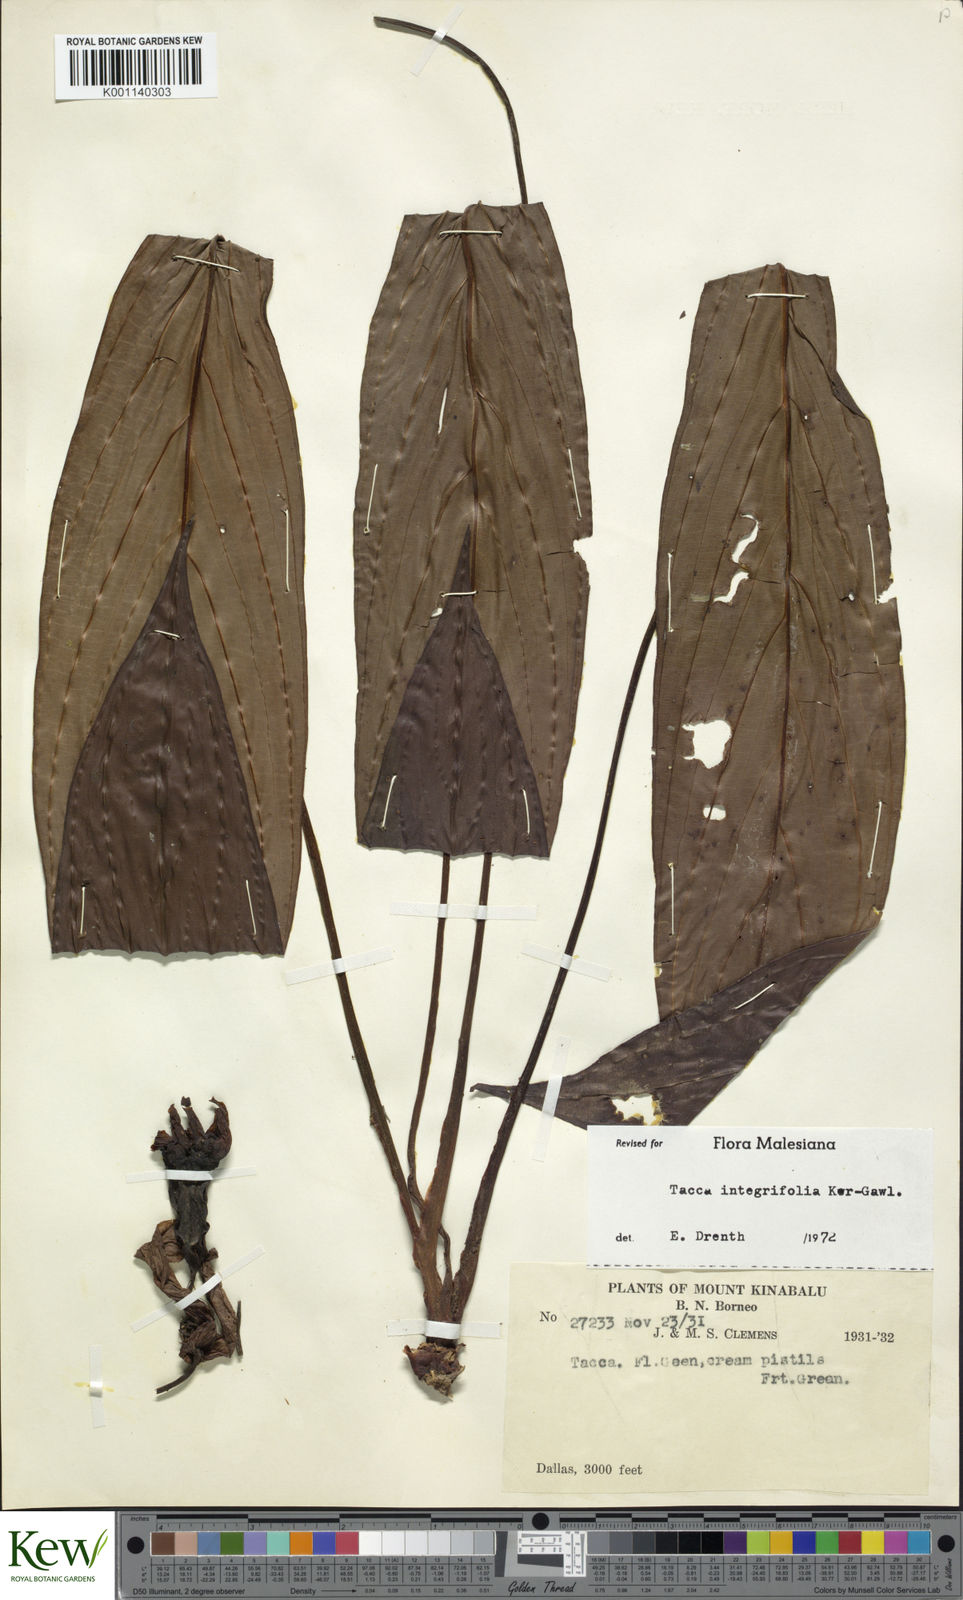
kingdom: Plantae
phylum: Tracheophyta
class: Liliopsida
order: Dioscoreales
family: Dioscoreaceae
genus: Tacca
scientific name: Tacca integrifolia
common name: Batplant
